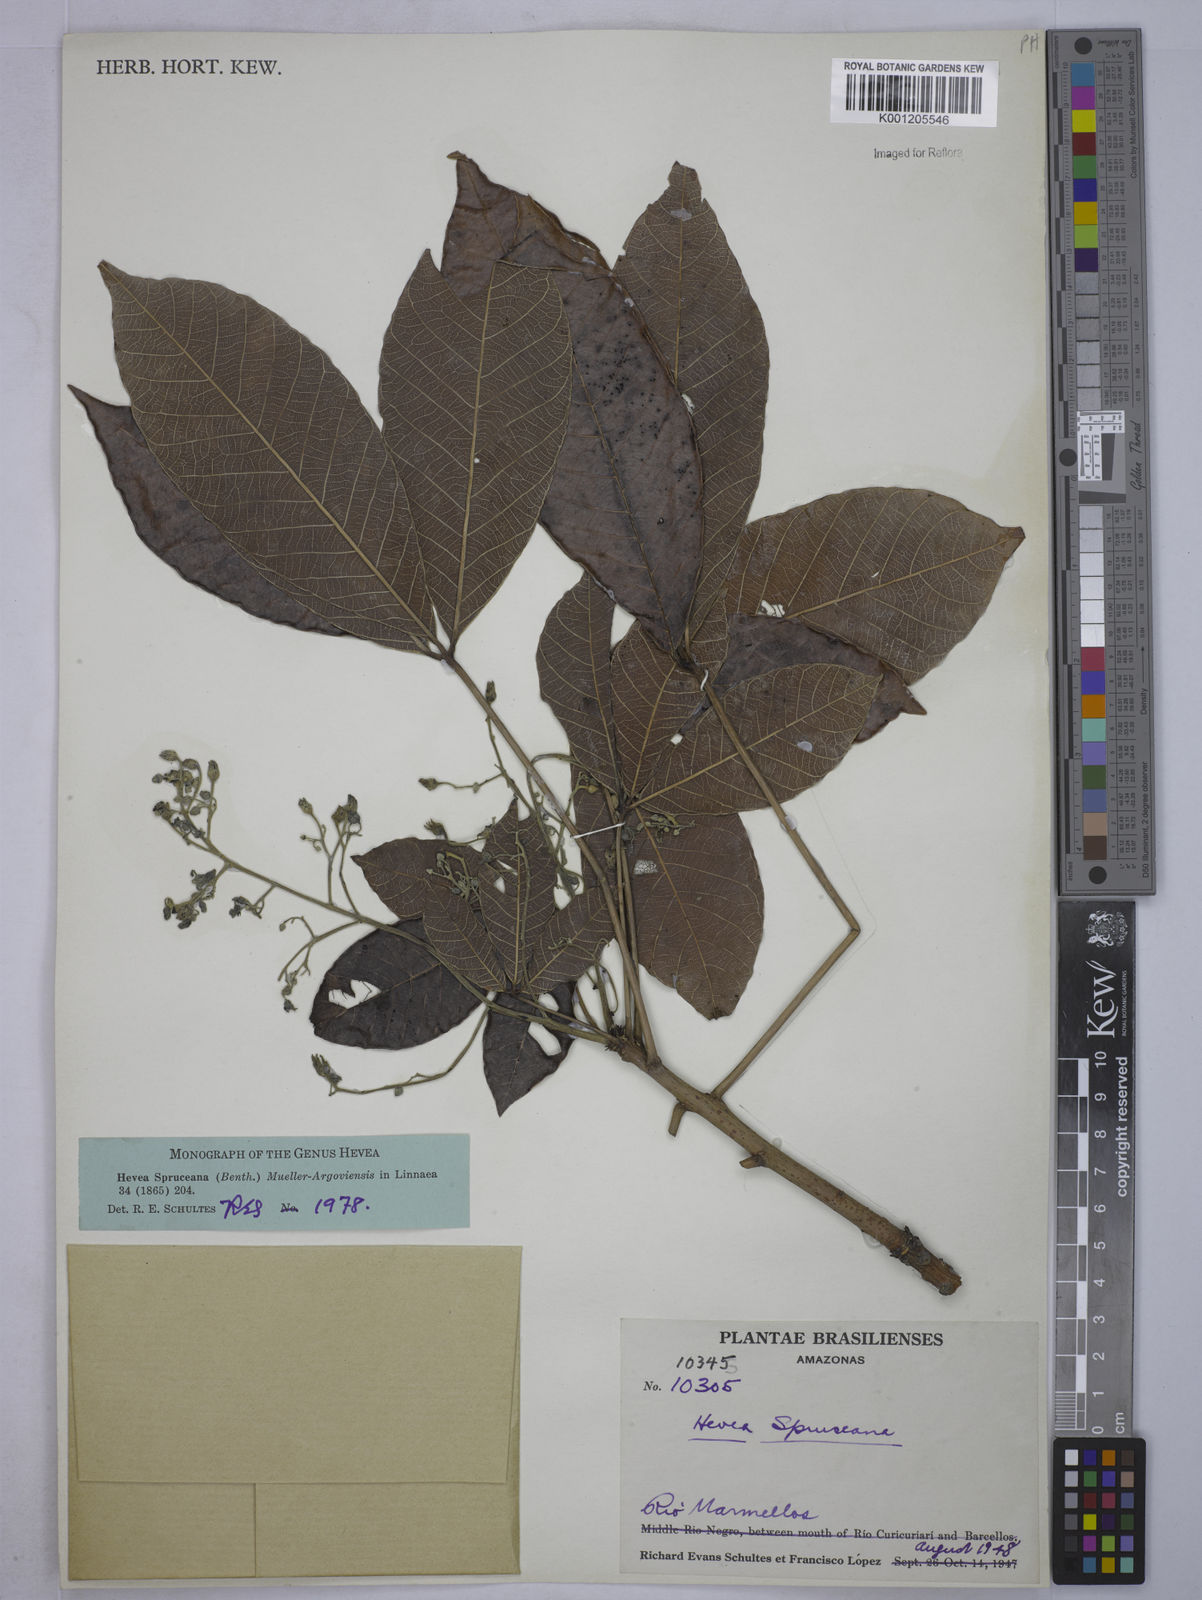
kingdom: Plantae
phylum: Tracheophyta
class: Magnoliopsida
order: Malpighiales
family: Euphorbiaceae
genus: Hevea
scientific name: Hevea
